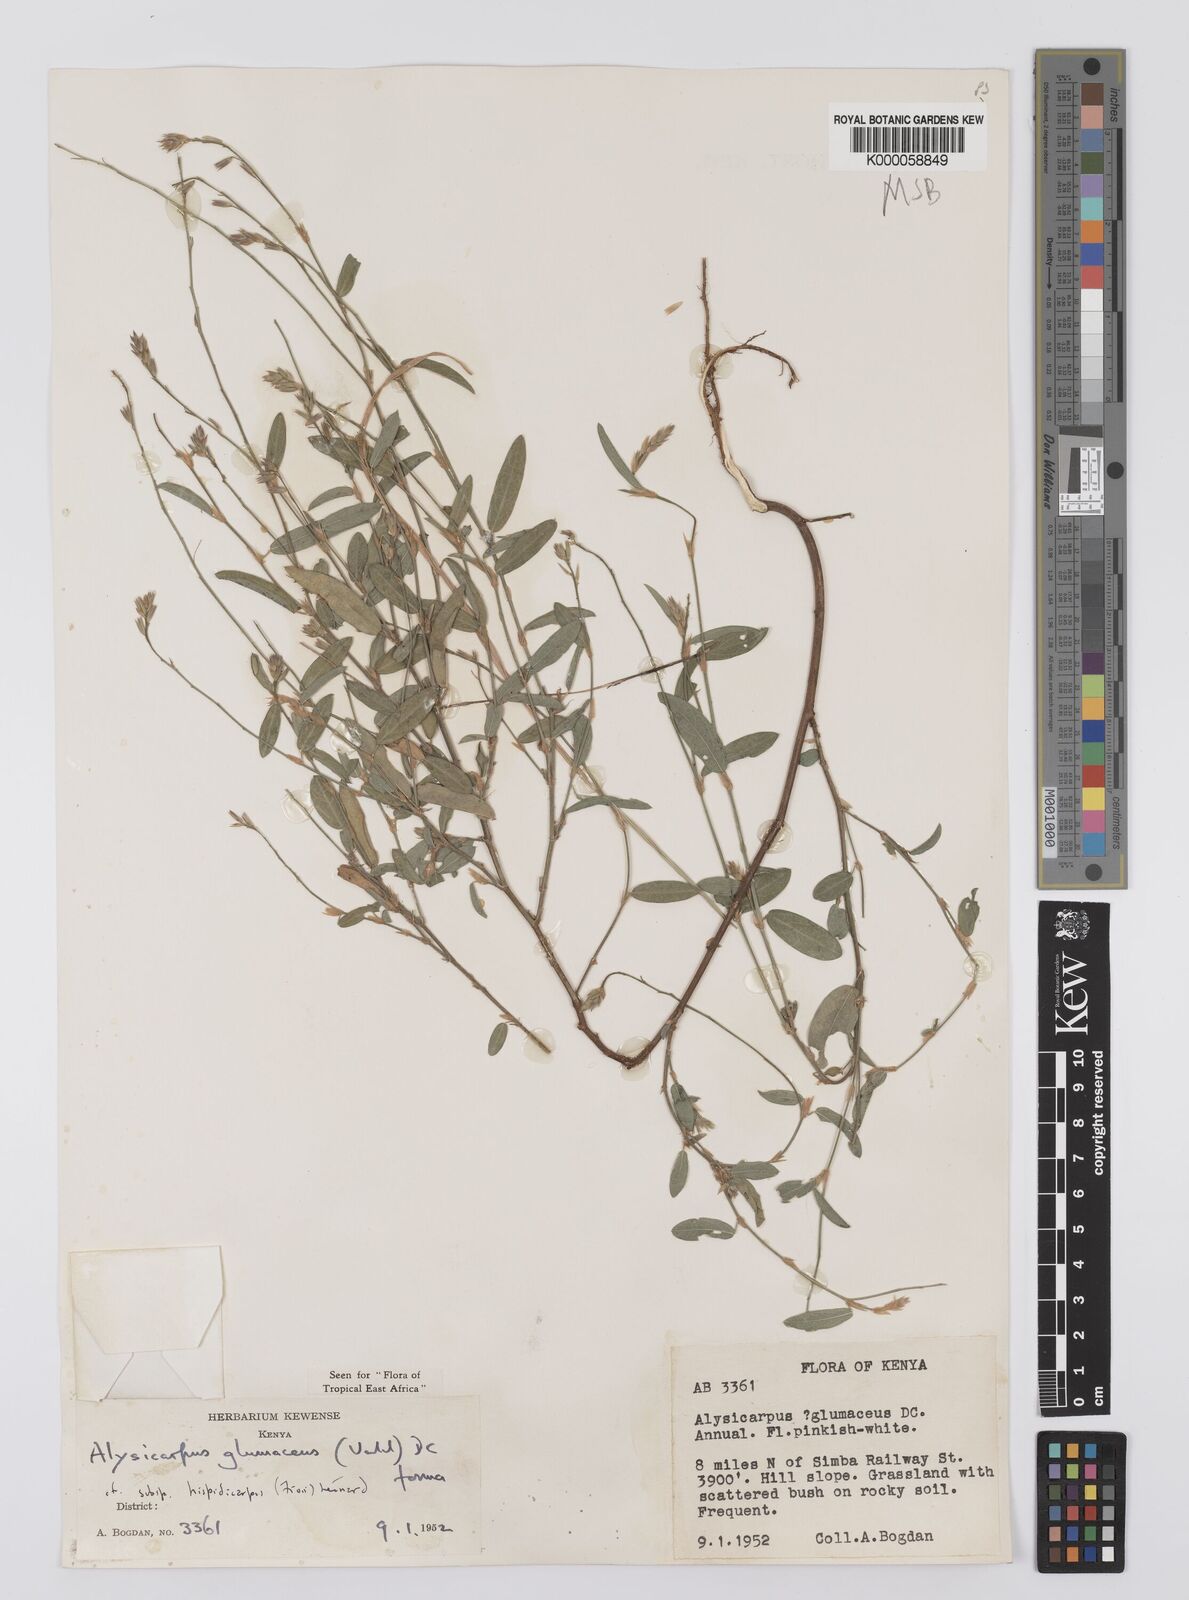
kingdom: Plantae
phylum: Tracheophyta
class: Magnoliopsida
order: Fabales
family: Fabaceae
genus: Alysicarpus
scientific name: Alysicarpus glumaceus
